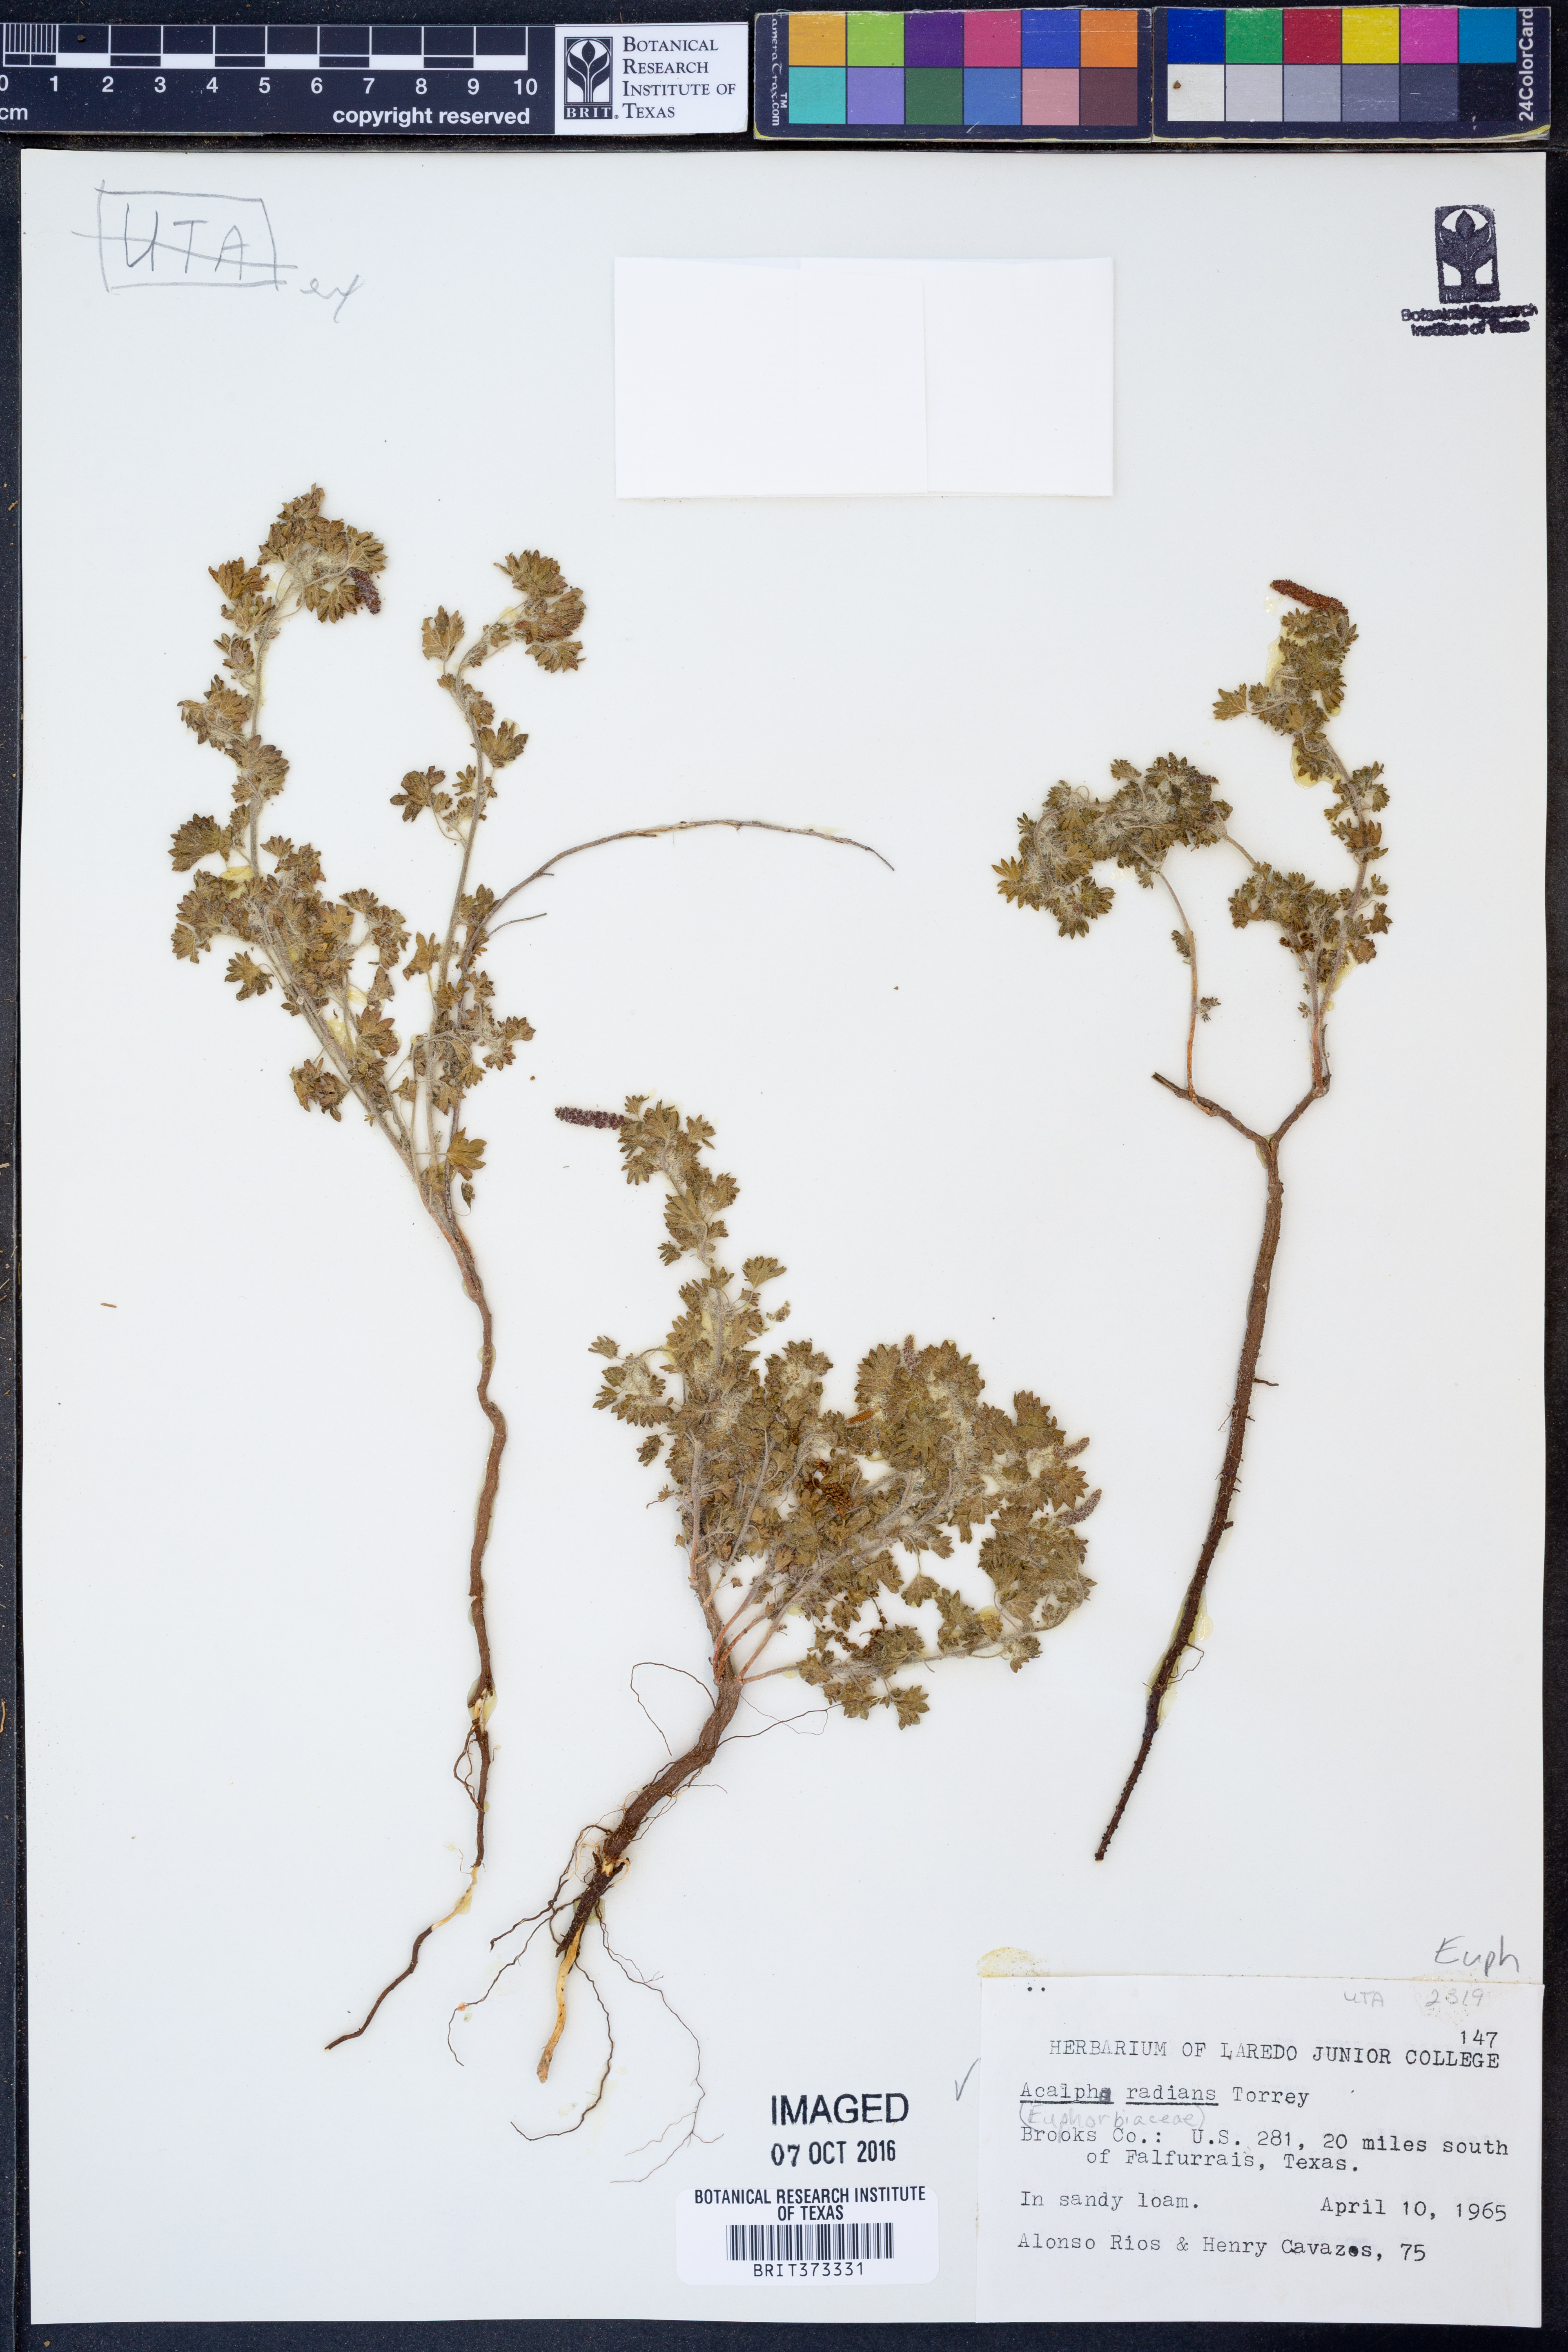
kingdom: Plantae
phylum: Tracheophyta
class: Magnoliopsida
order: Malpighiales
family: Euphorbiaceae
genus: Acalypha
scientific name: Acalypha radians
